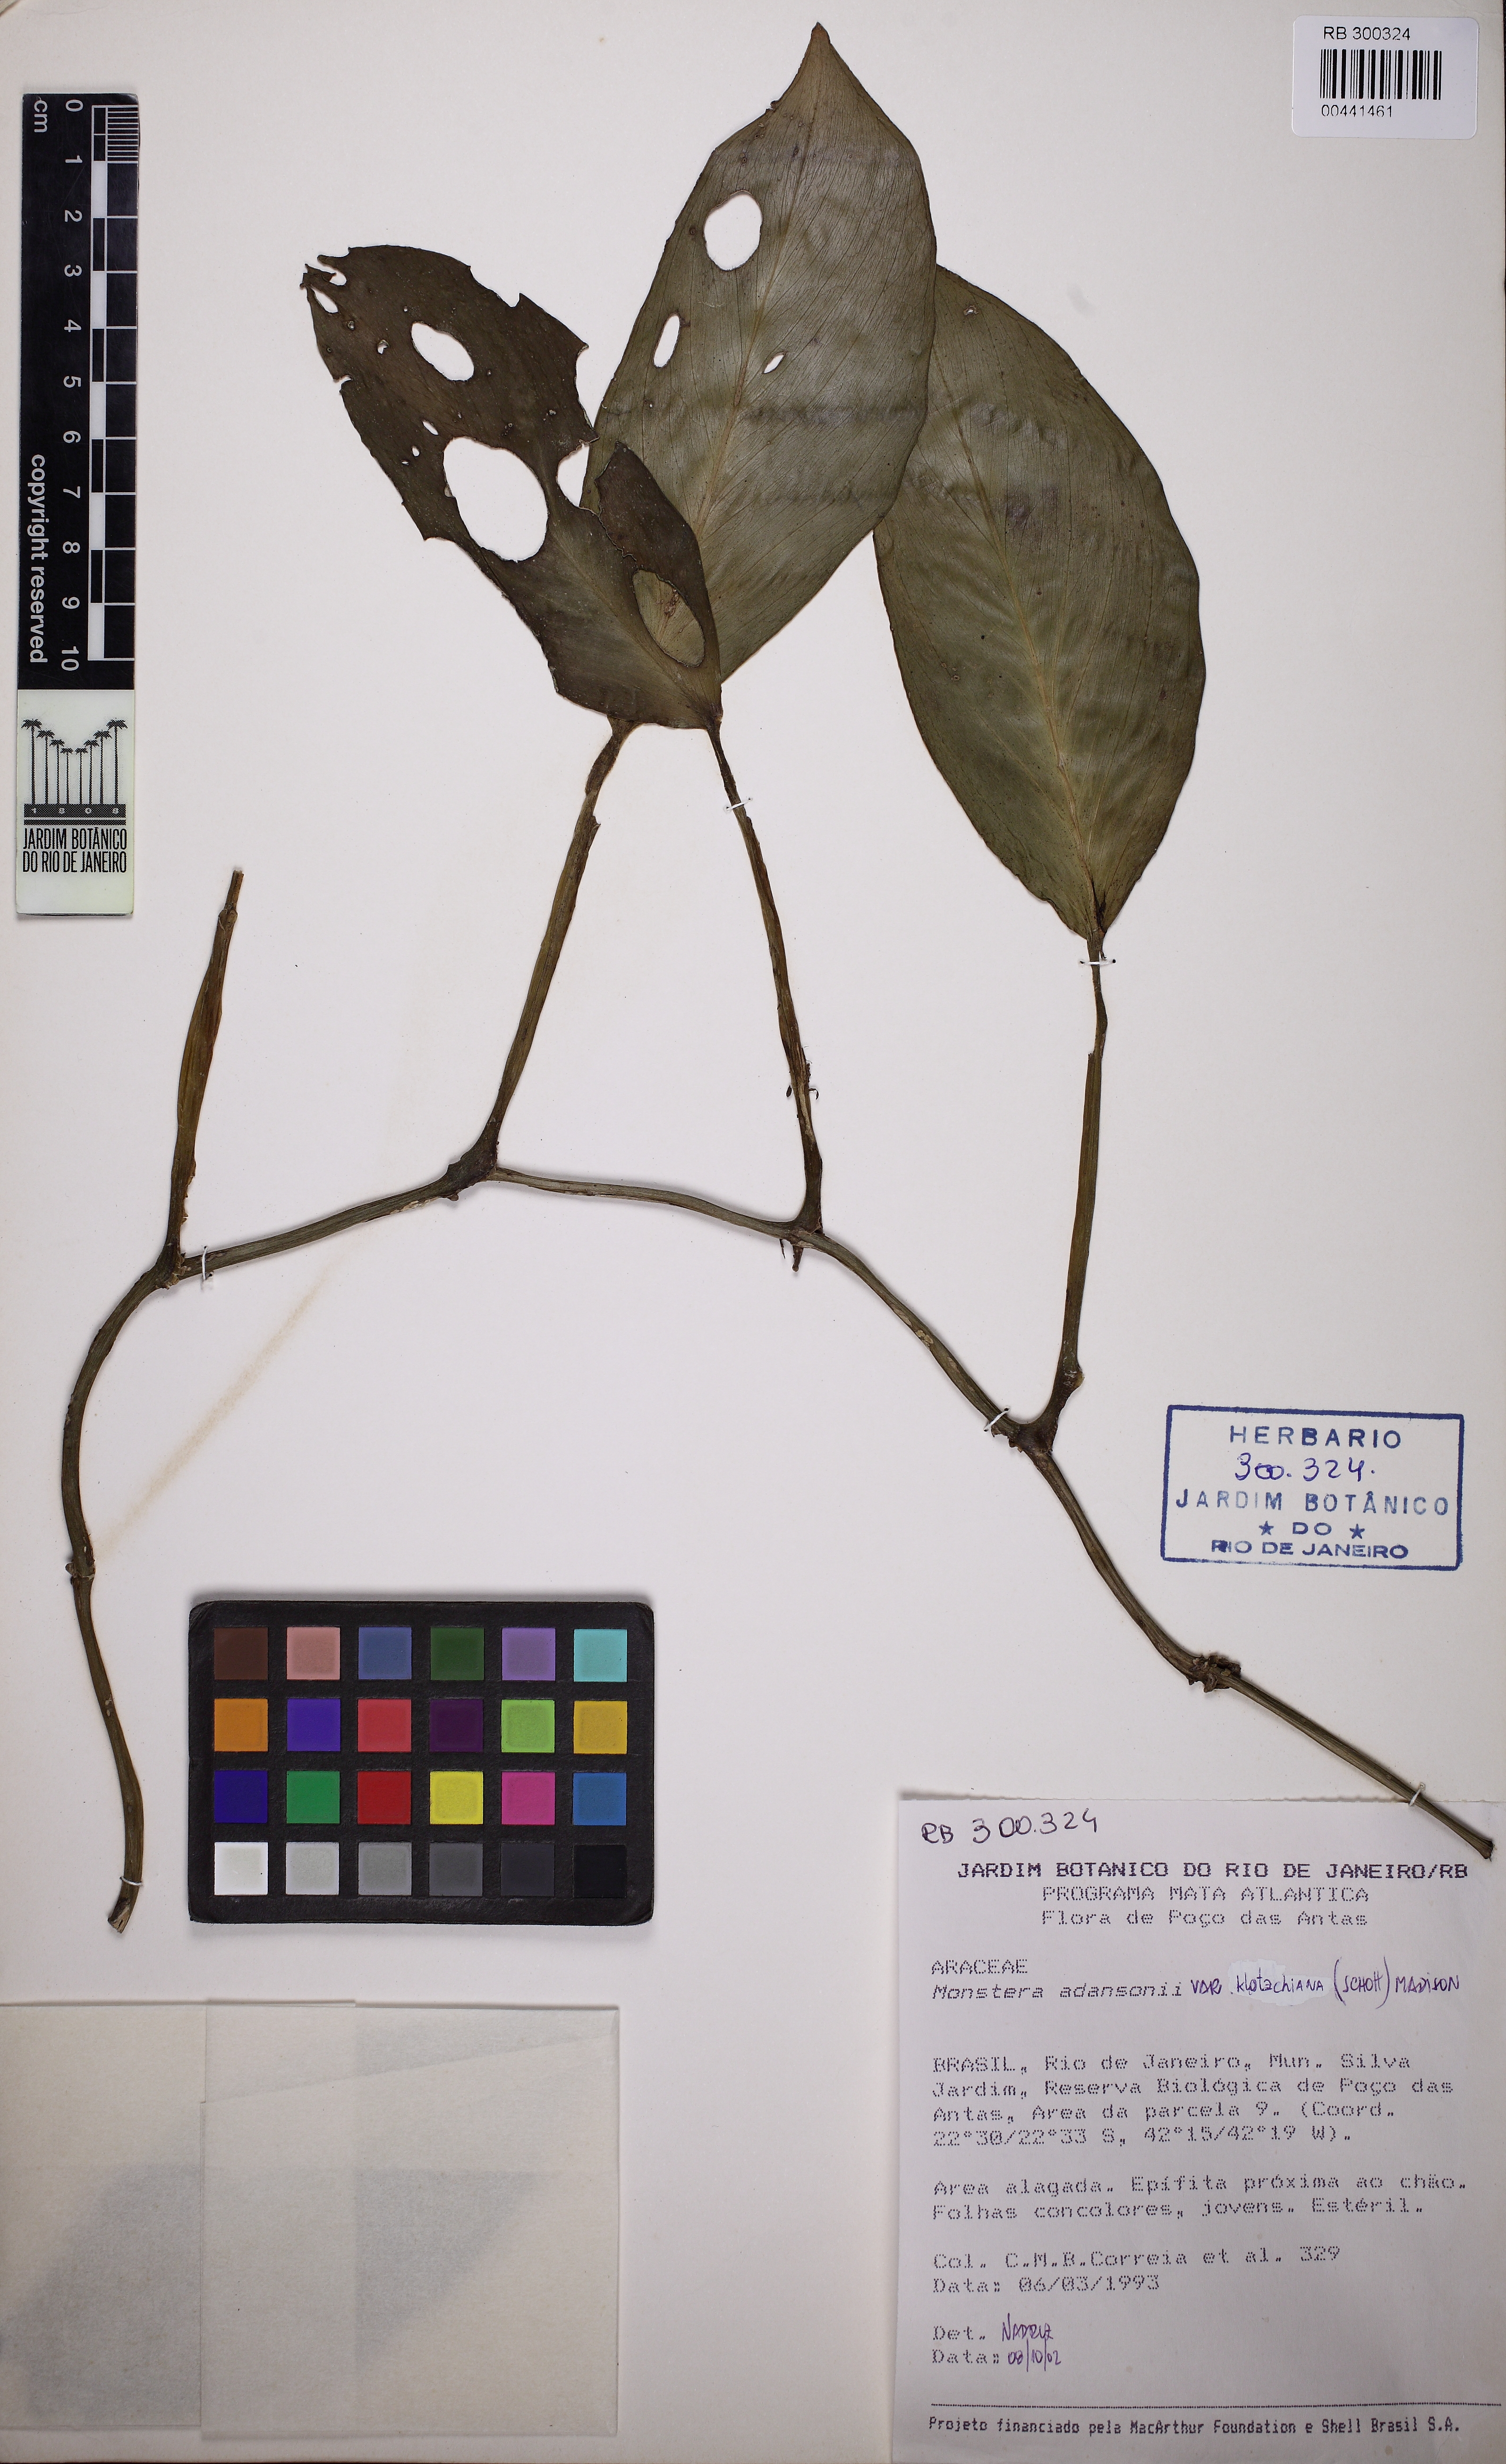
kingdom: Plantae
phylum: Tracheophyta
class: Liliopsida
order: Alismatales
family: Araceae
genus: Monstera
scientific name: Monstera adansonii
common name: Tarovine
